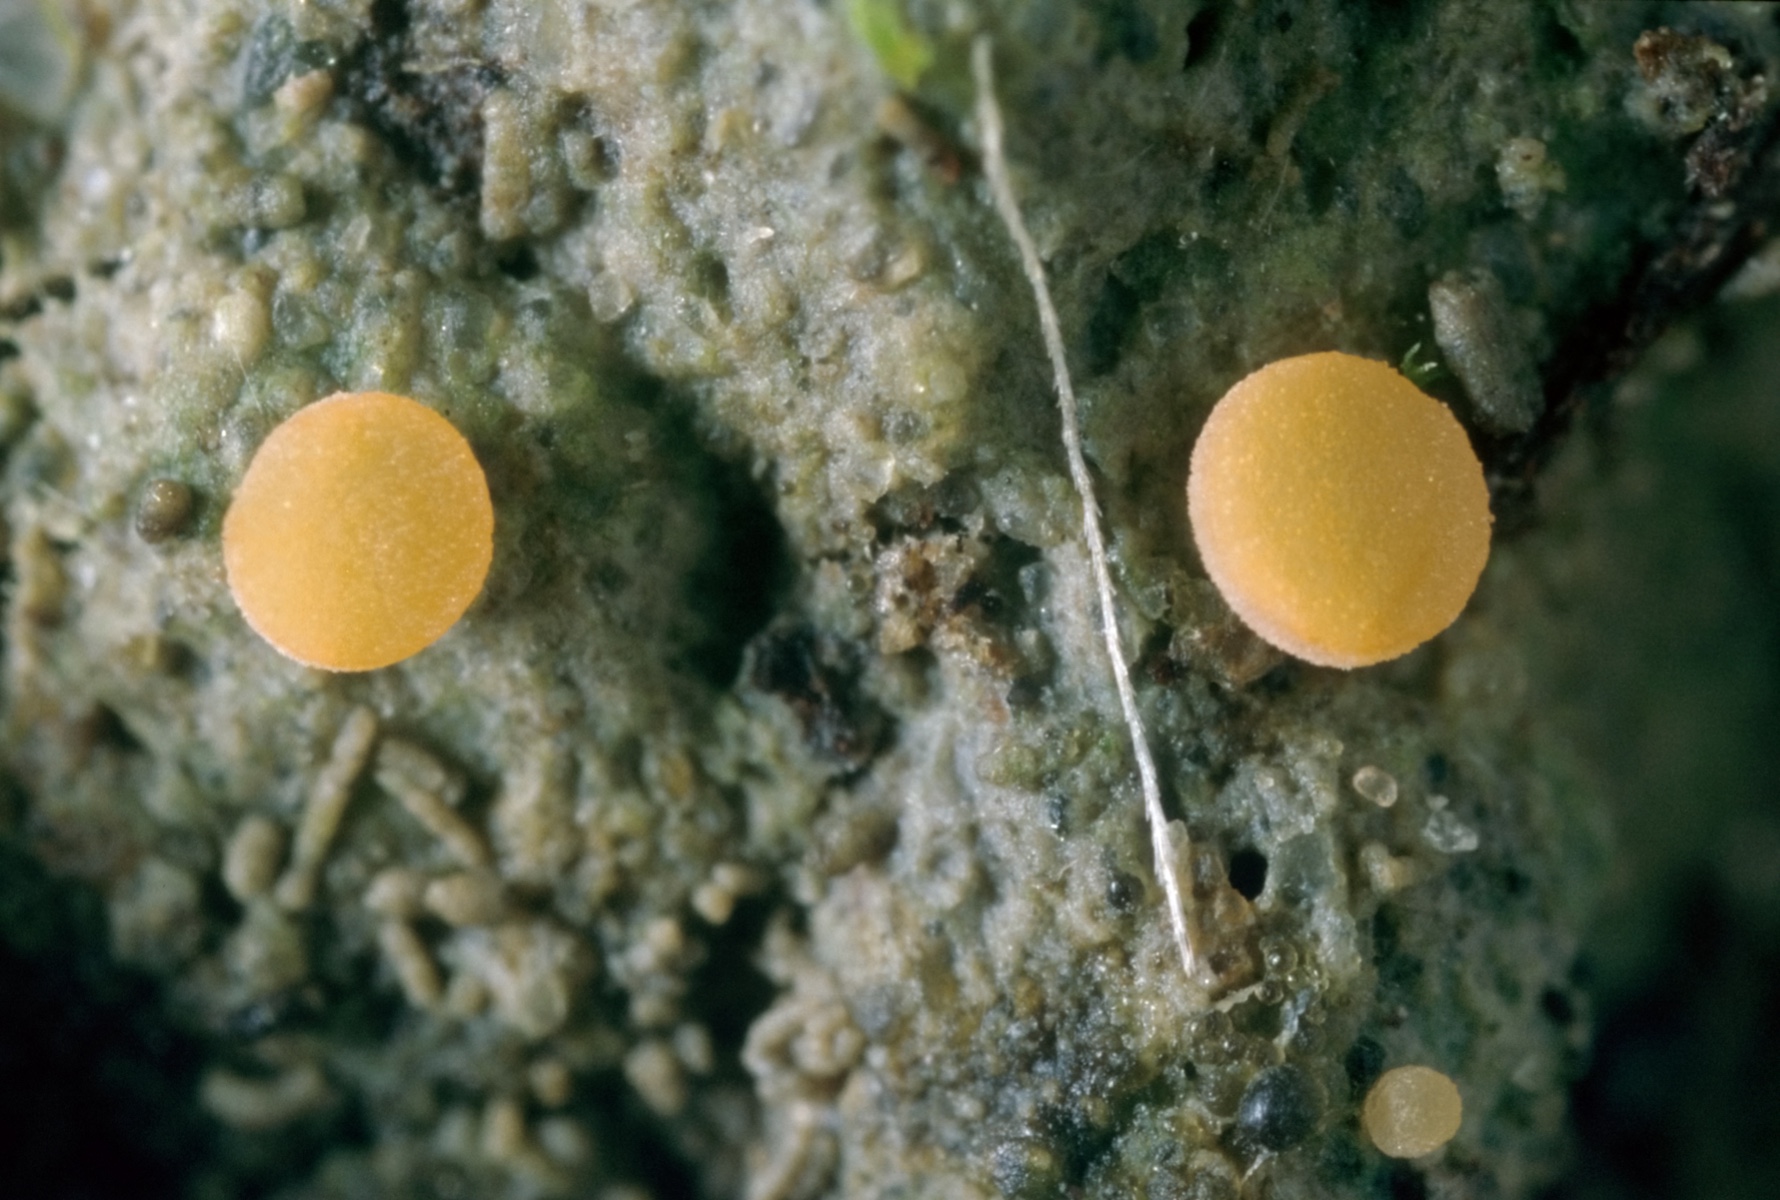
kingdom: Fungi
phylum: Ascomycota
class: Pezizomycetes
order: Pezizales
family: Pyronemataceae
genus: Boubovia
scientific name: Boubovia ovalispora
